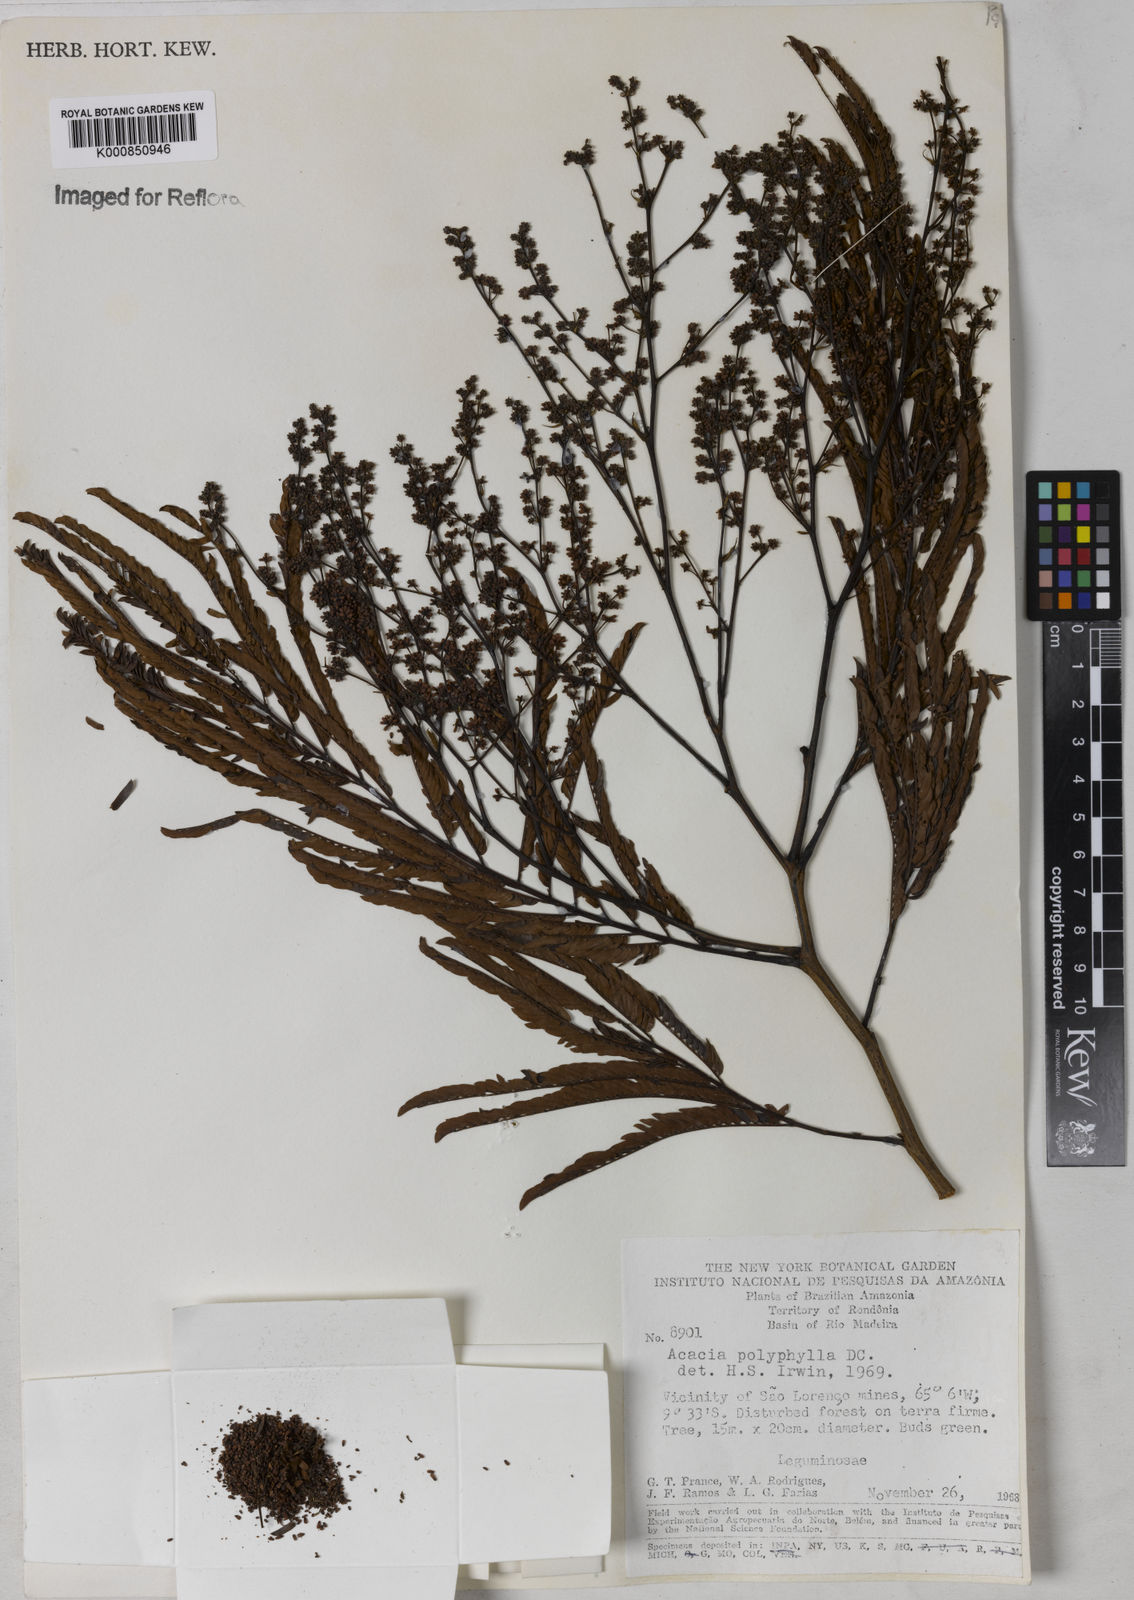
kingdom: Plantae
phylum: Tracheophyta
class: Magnoliopsida
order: Fabales
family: Fabaceae
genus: Senegalia
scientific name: Senegalia polyphylla
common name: White-tamarind
